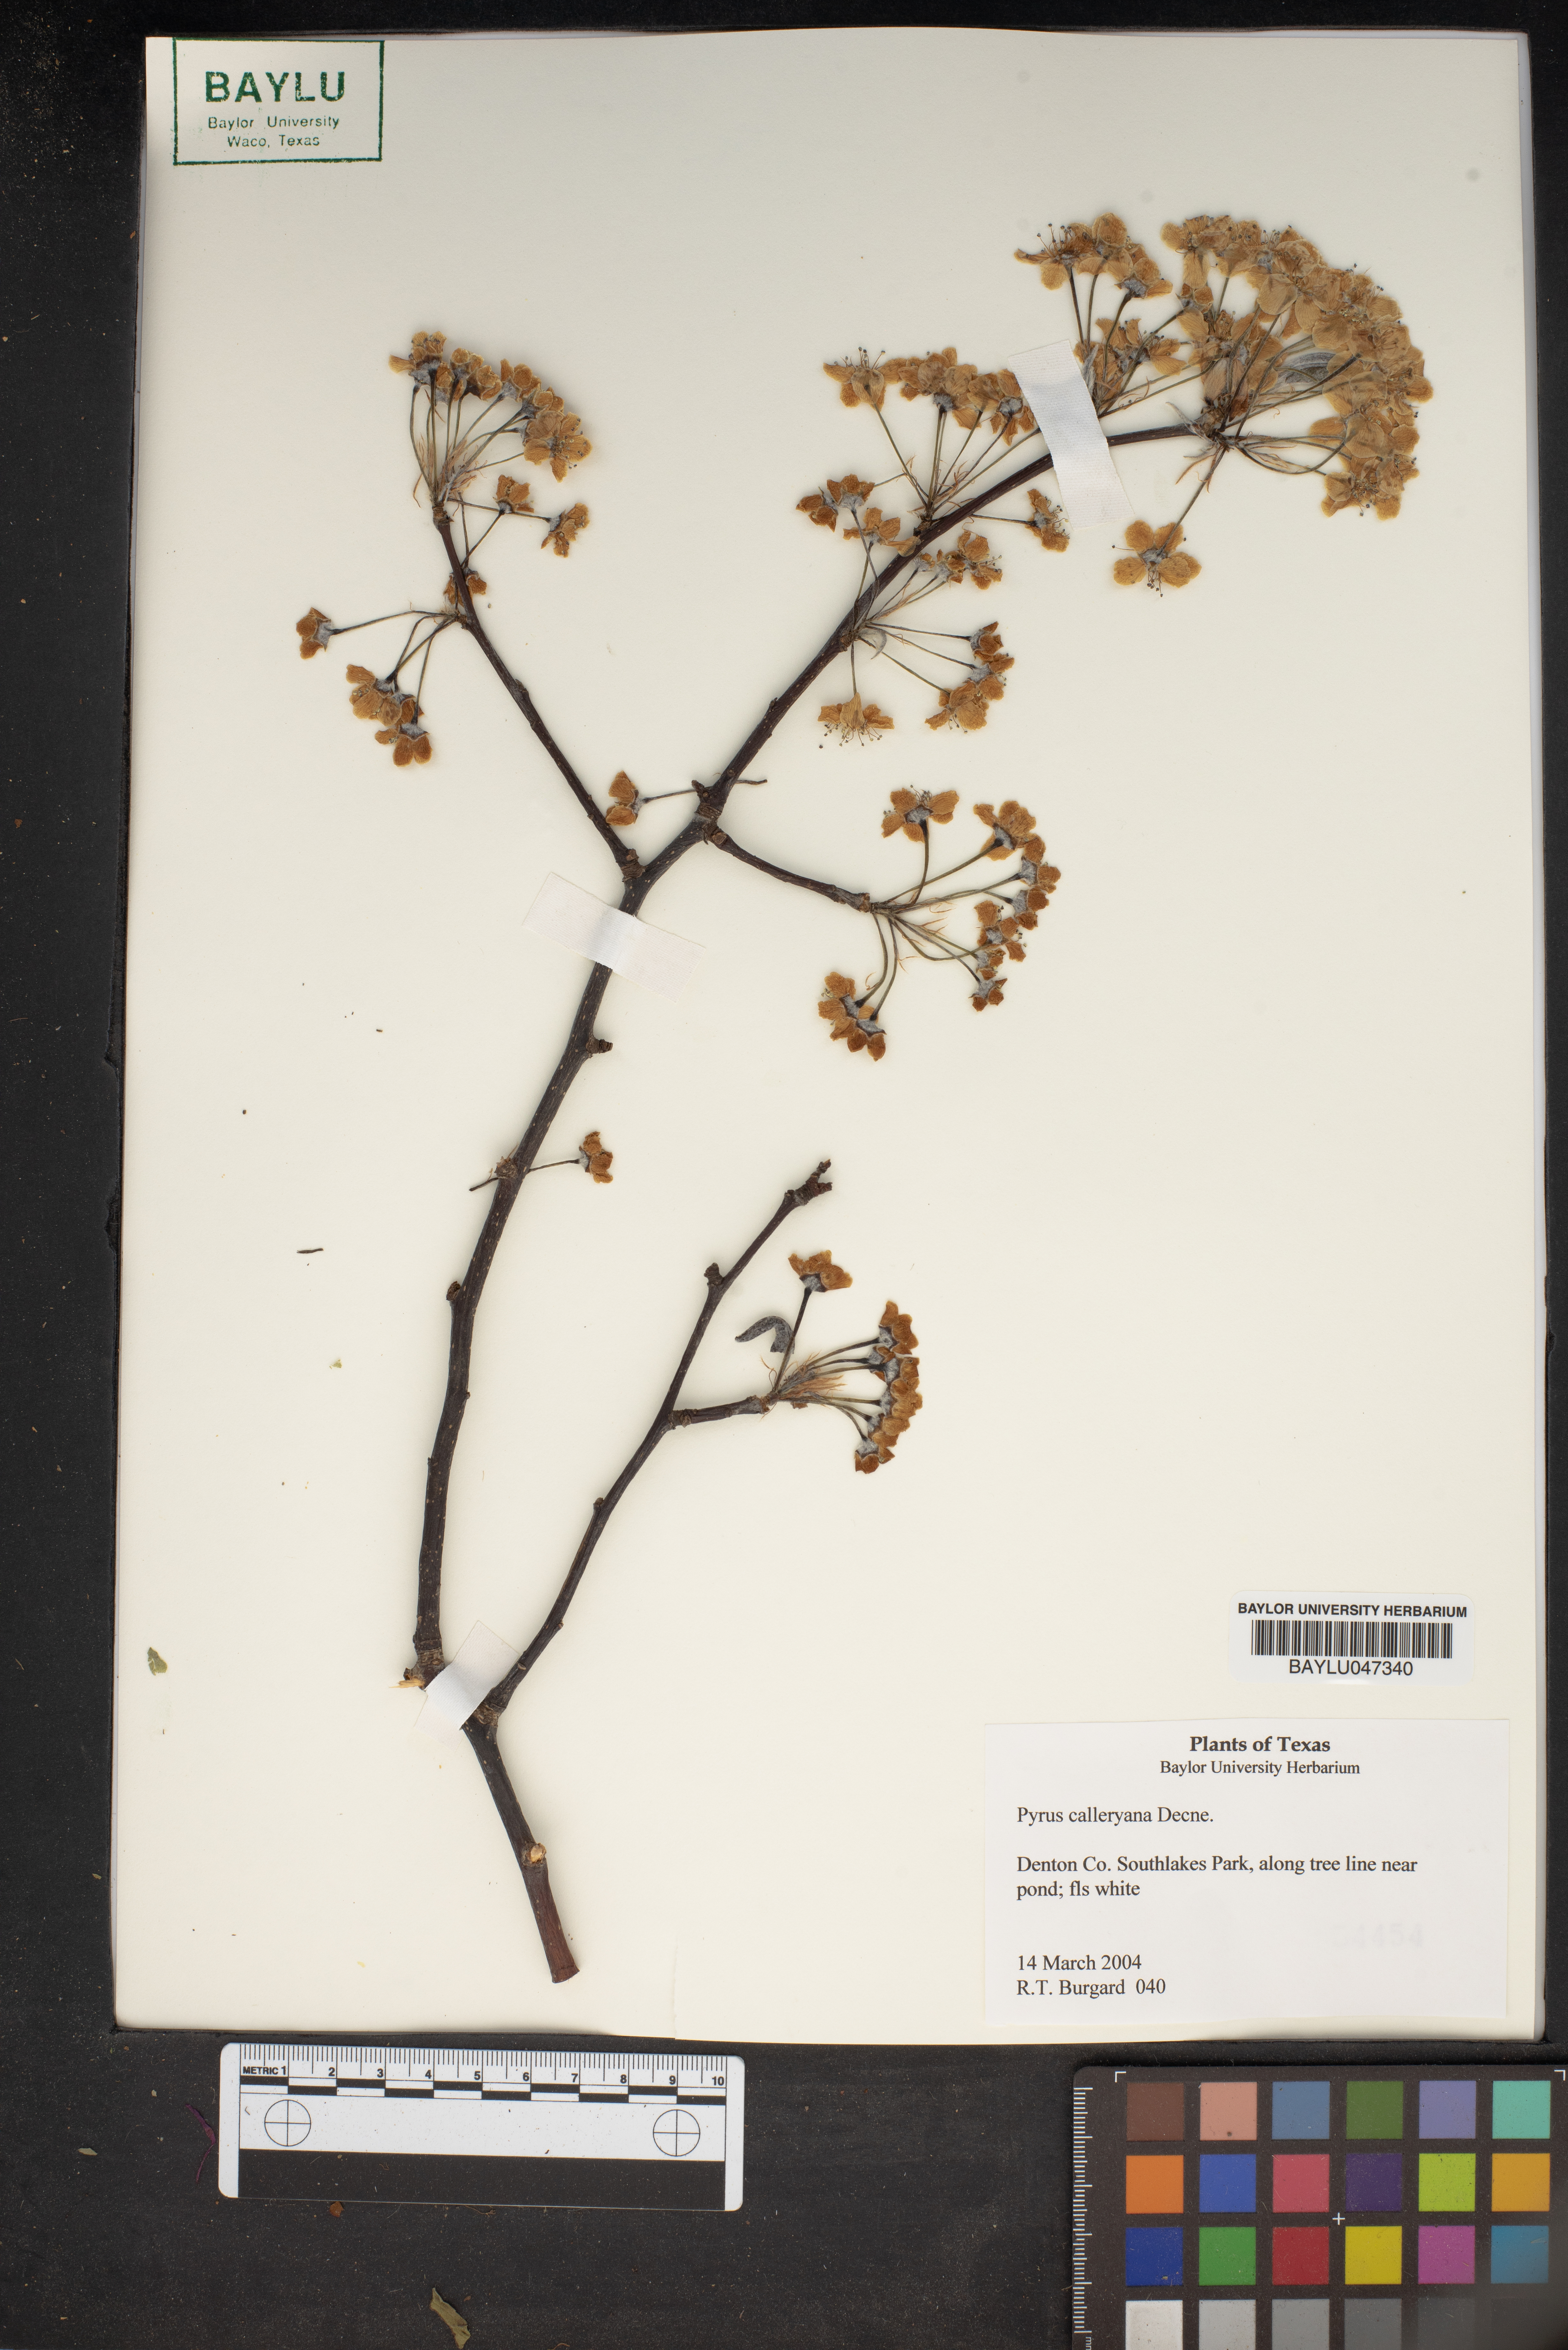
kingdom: Plantae
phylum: Tracheophyta
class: Magnoliopsida
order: Rosales
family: Rosaceae
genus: Pyrus
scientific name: Pyrus calleryana
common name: Callery pear
